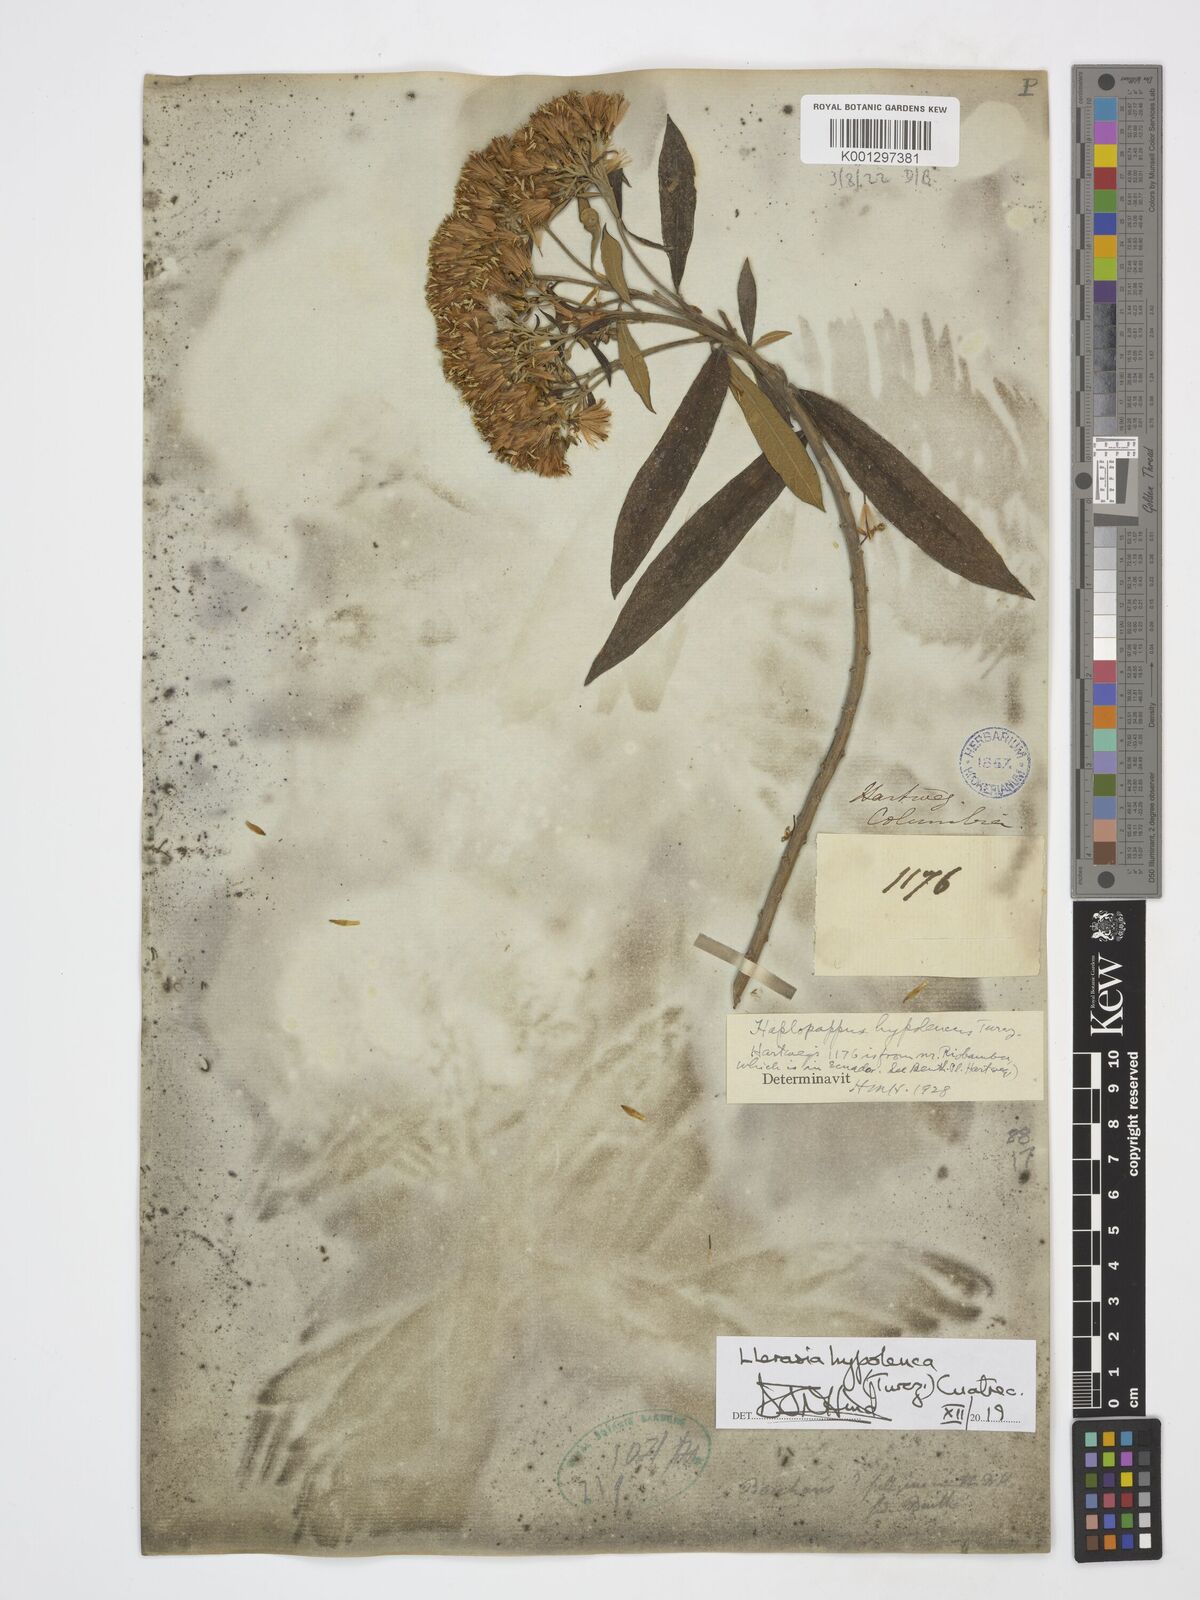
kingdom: Plantae
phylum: Tracheophyta
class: Magnoliopsida
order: Asterales
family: Asteraceae
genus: Llerasia
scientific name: Llerasia hypoleuca
